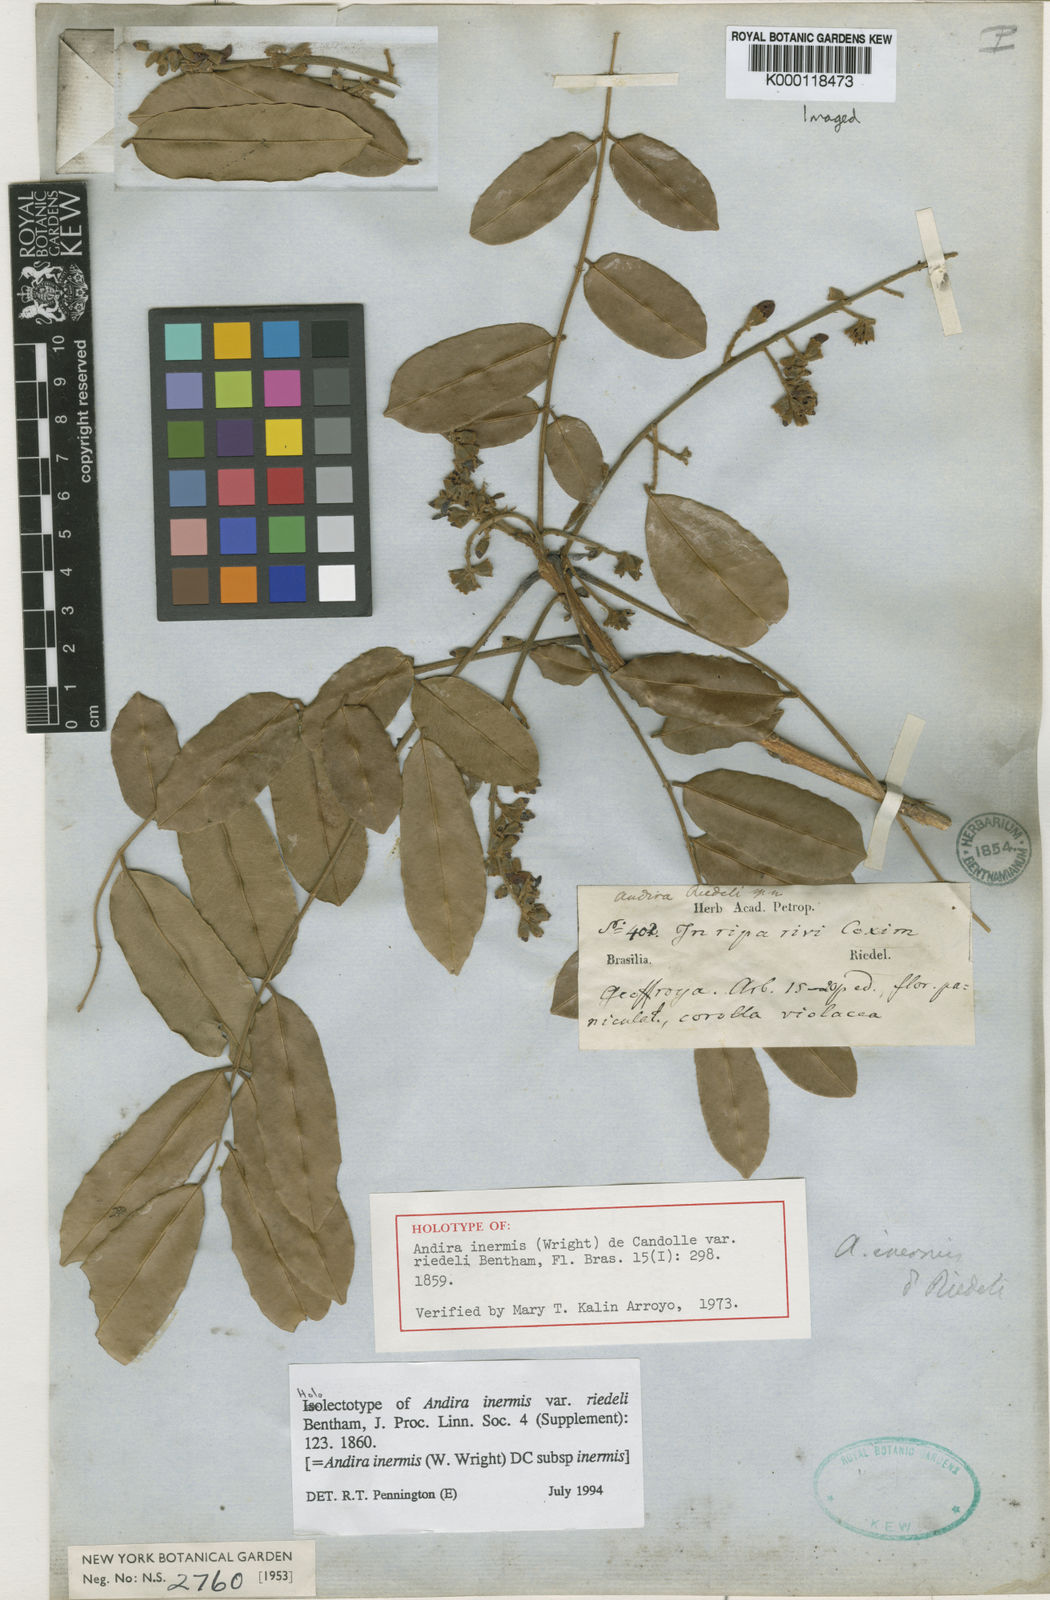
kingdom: Plantae
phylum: Tracheophyta
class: Magnoliopsida
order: Fabales
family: Fabaceae
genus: Andira
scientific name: Andira inermis
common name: Angelin
